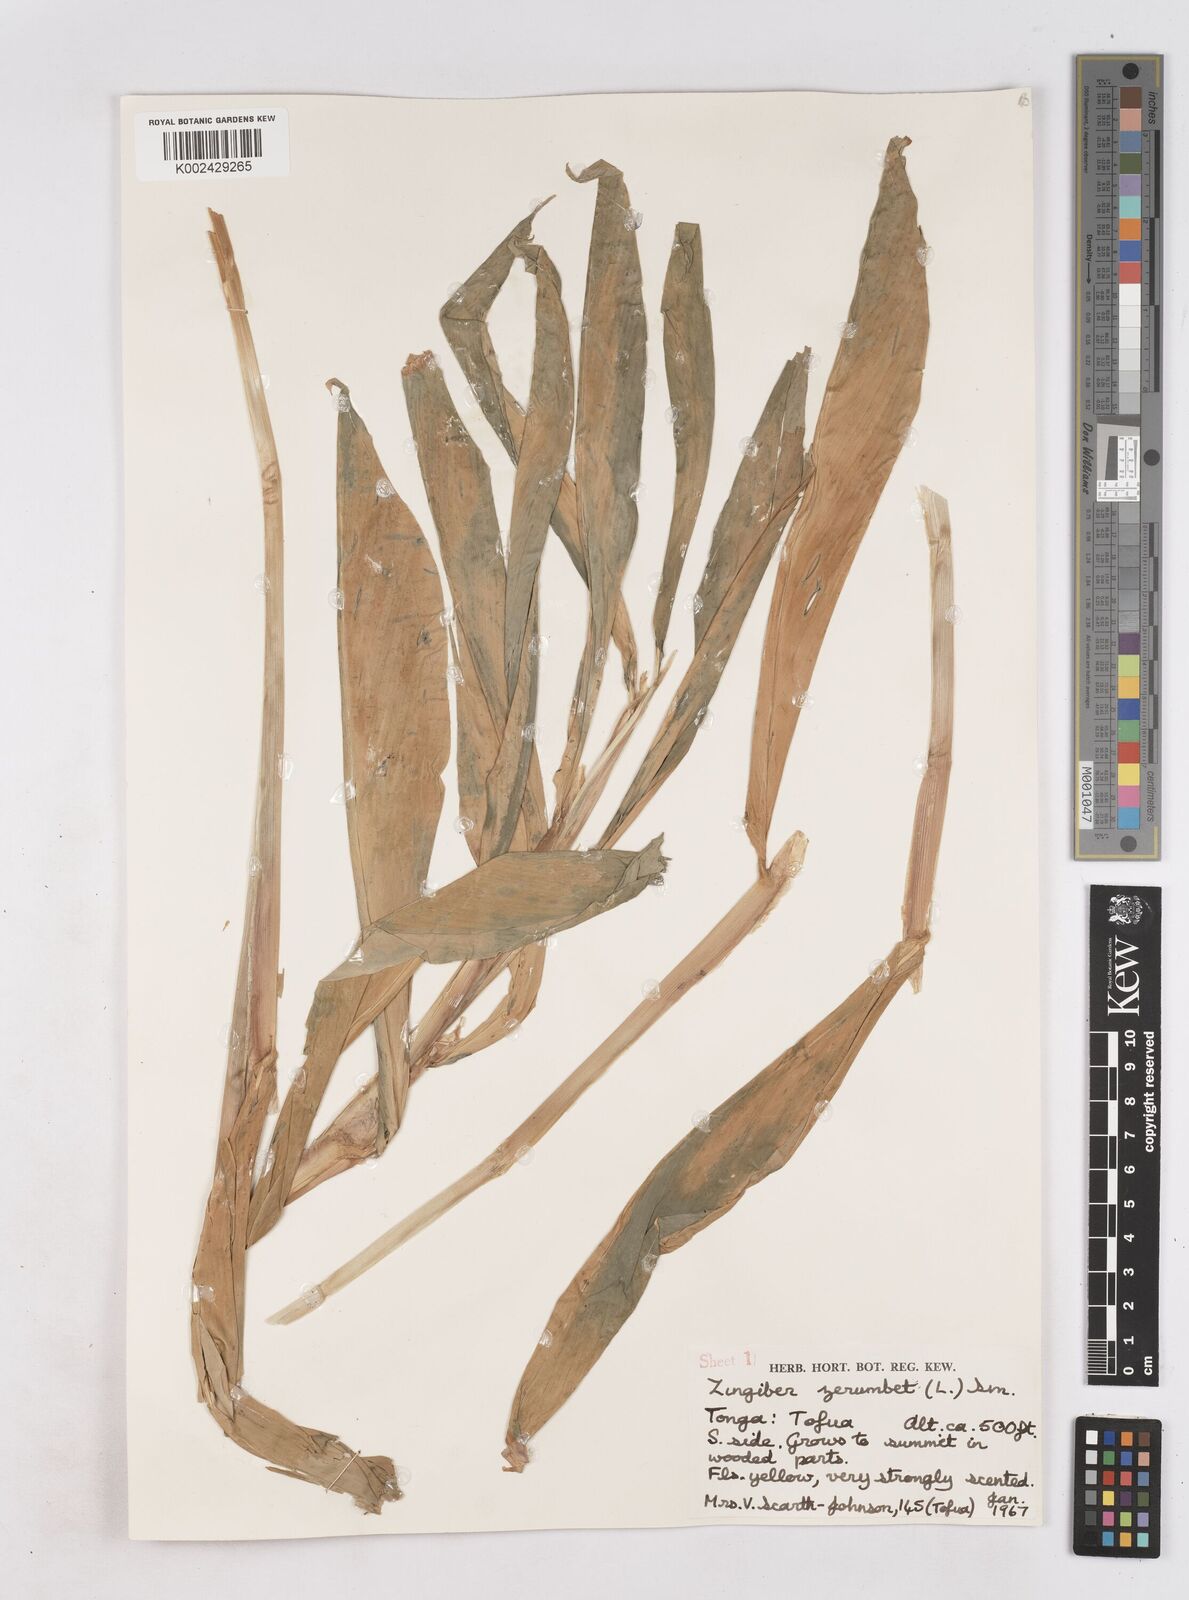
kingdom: Plantae
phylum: Tracheophyta
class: Liliopsida
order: Zingiberales
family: Zingiberaceae
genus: Zingiber
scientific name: Zingiber zerumbet
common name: Bitter ginger
